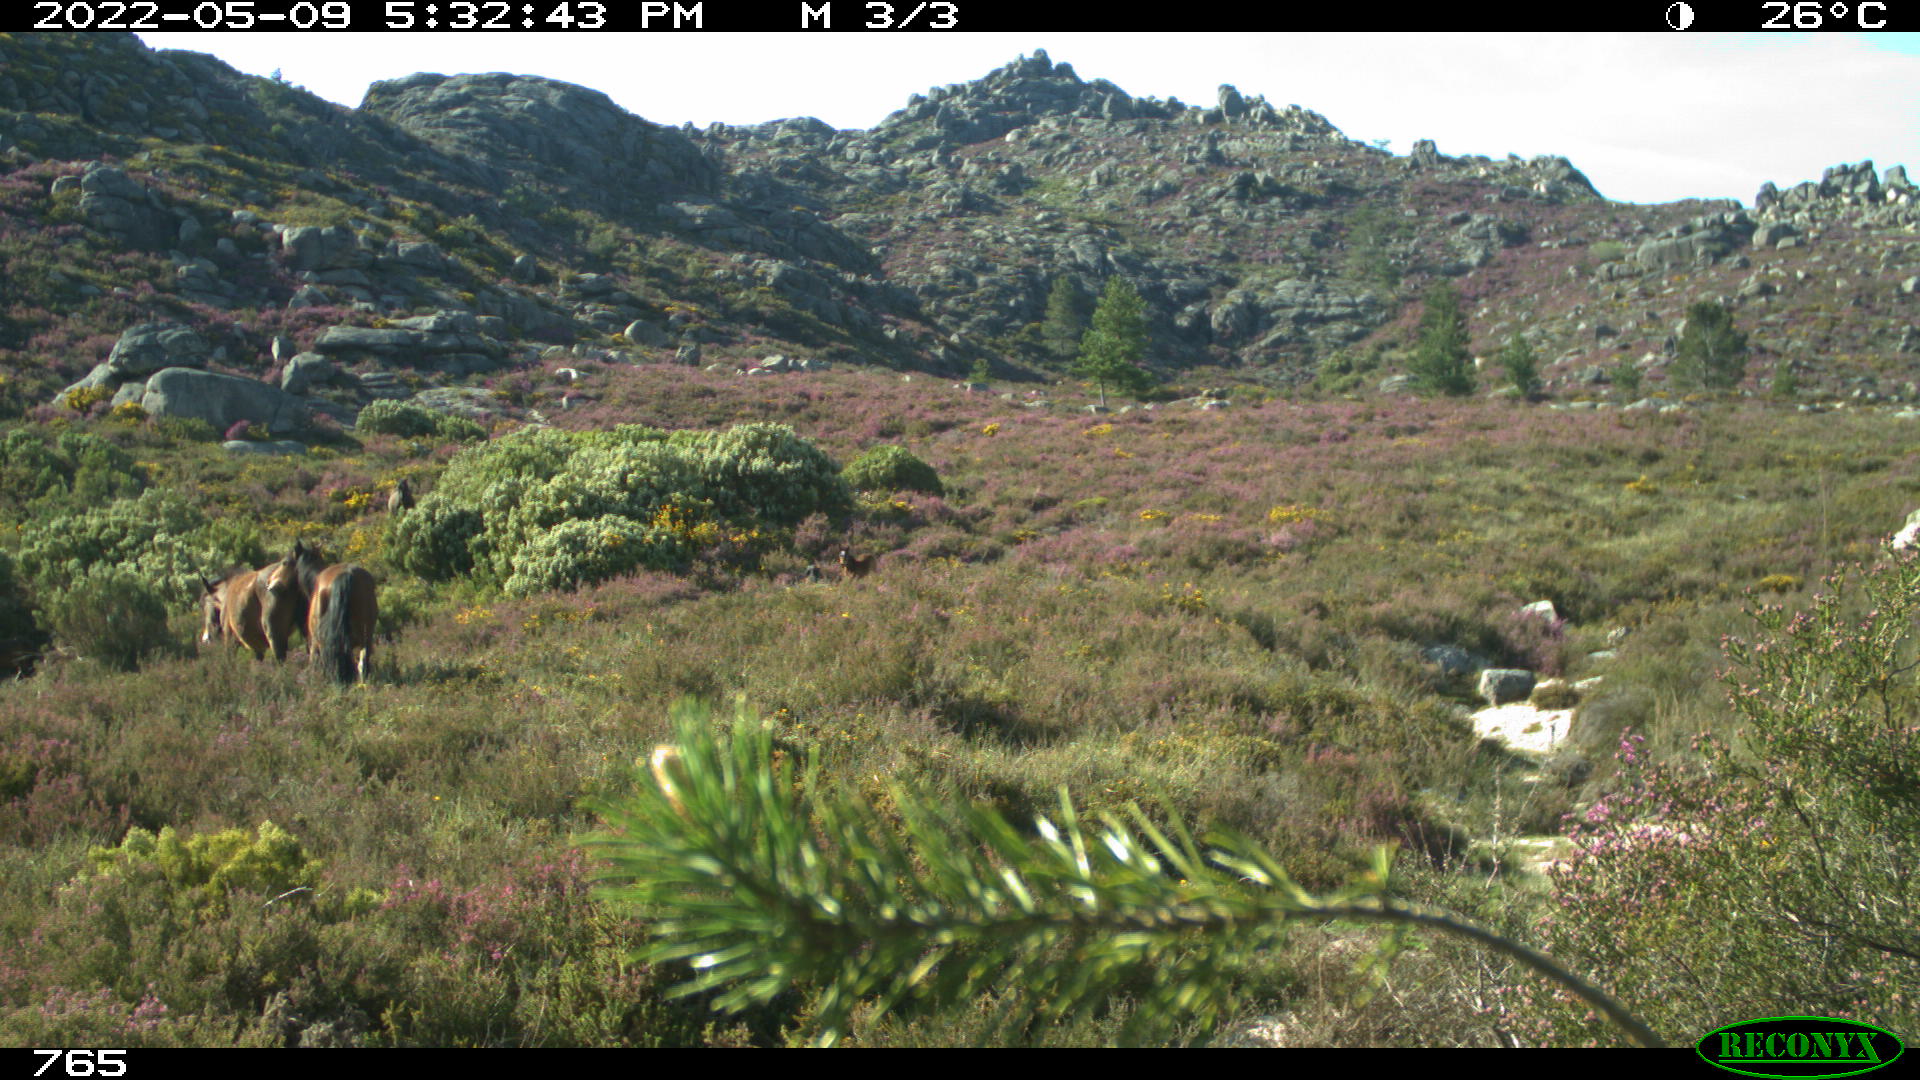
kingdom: Animalia
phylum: Chordata
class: Mammalia
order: Perissodactyla
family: Equidae
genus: Equus
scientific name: Equus caballus
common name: Horse
